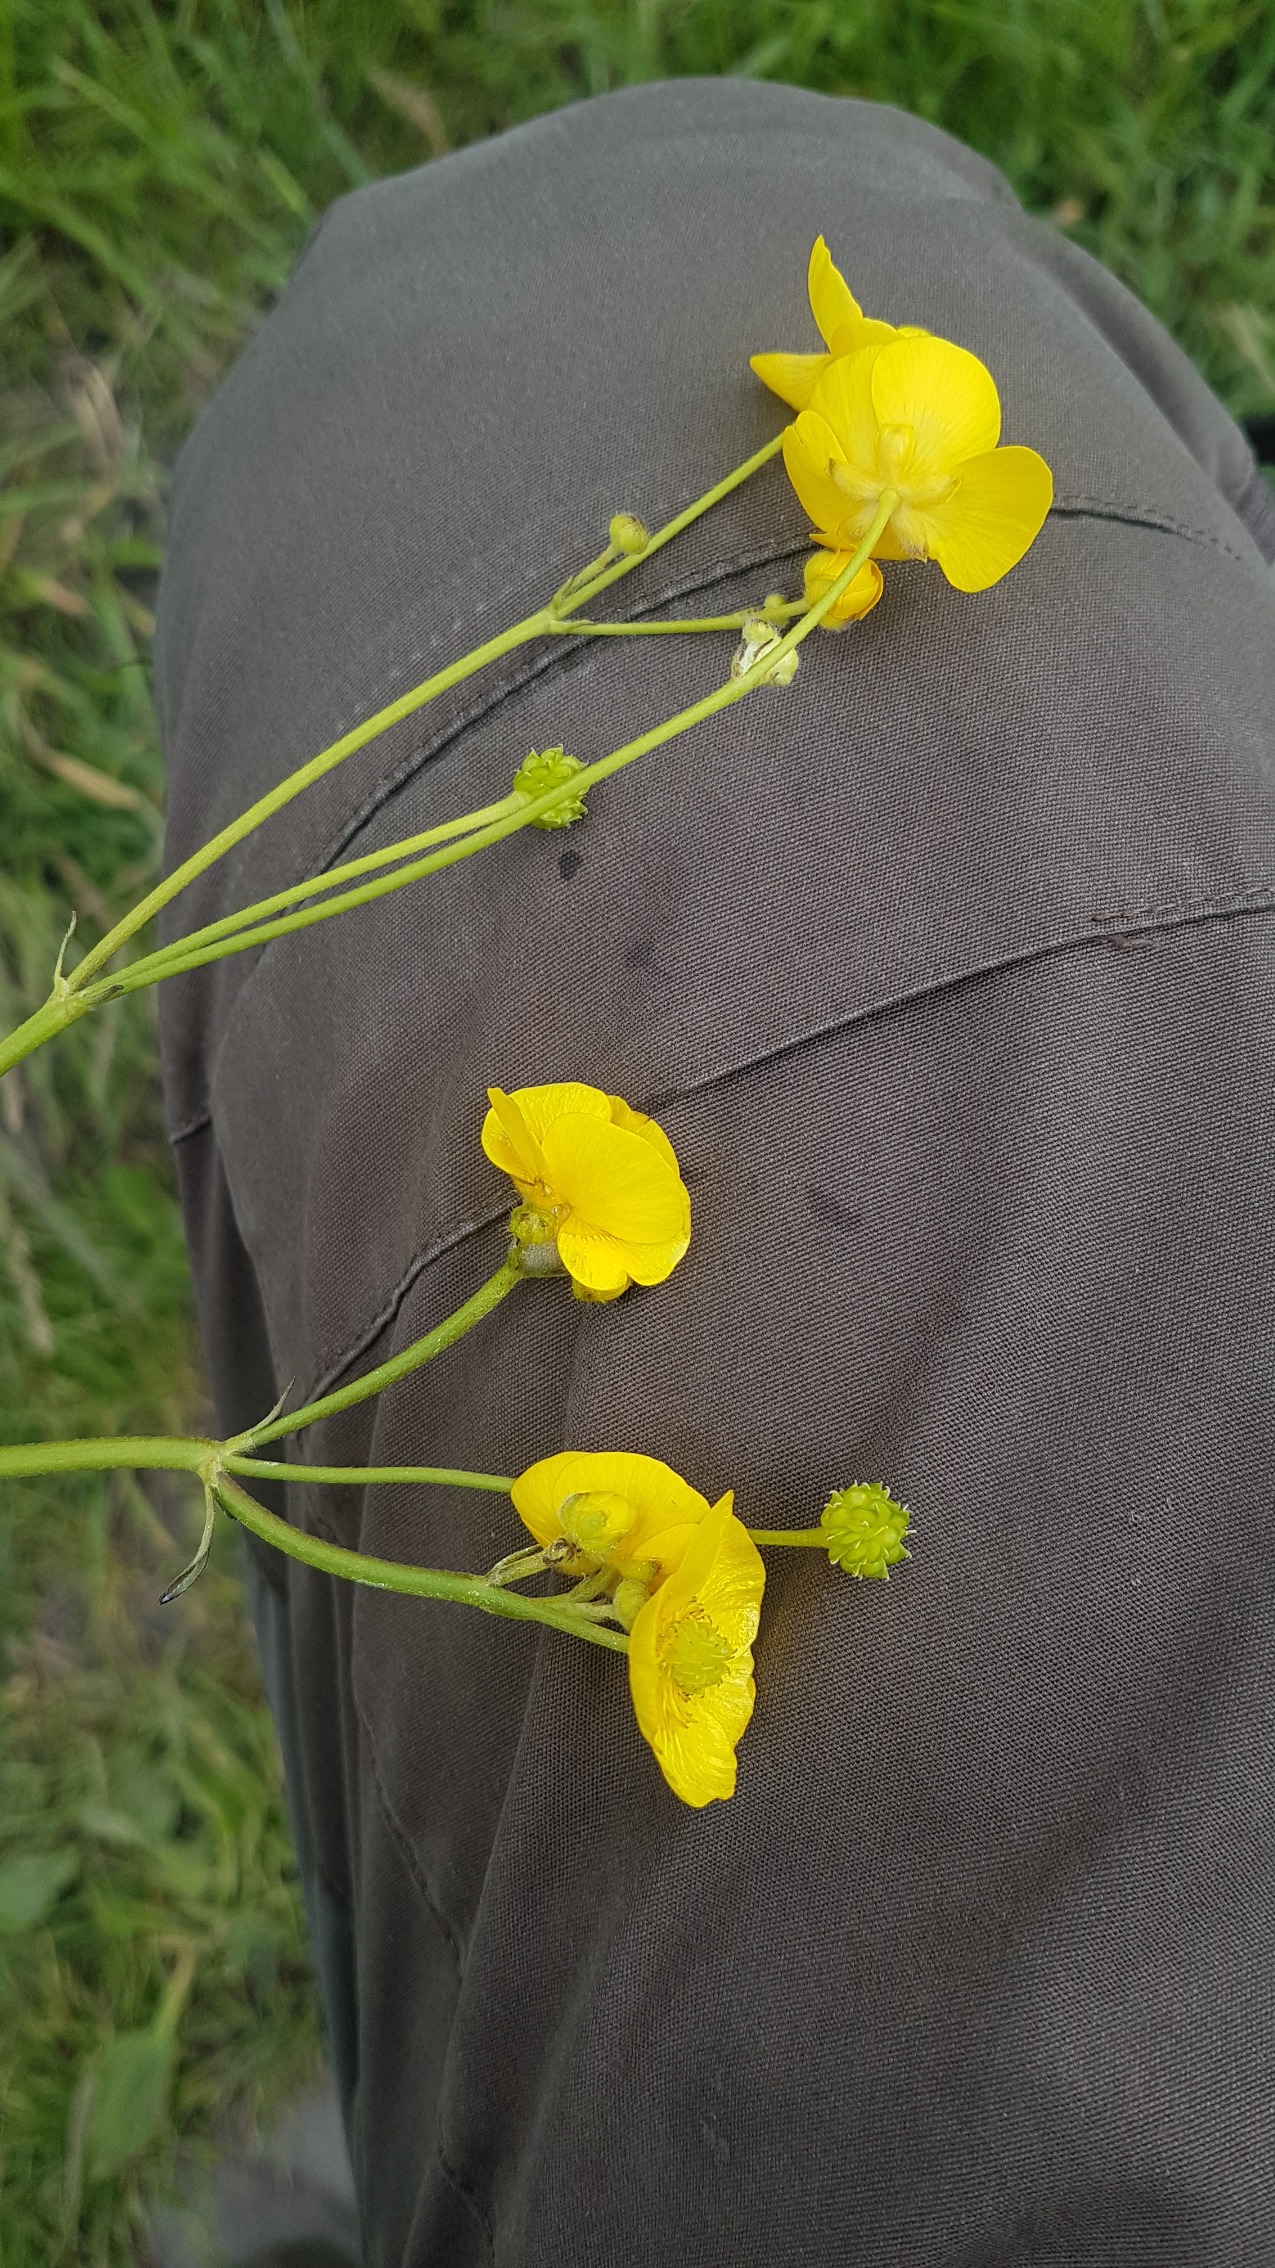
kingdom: Plantae
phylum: Tracheophyta
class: Magnoliopsida
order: Ranunculales
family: Ranunculaceae
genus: Ranunculus
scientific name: Ranunculus acris
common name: Bidende ranunkel
